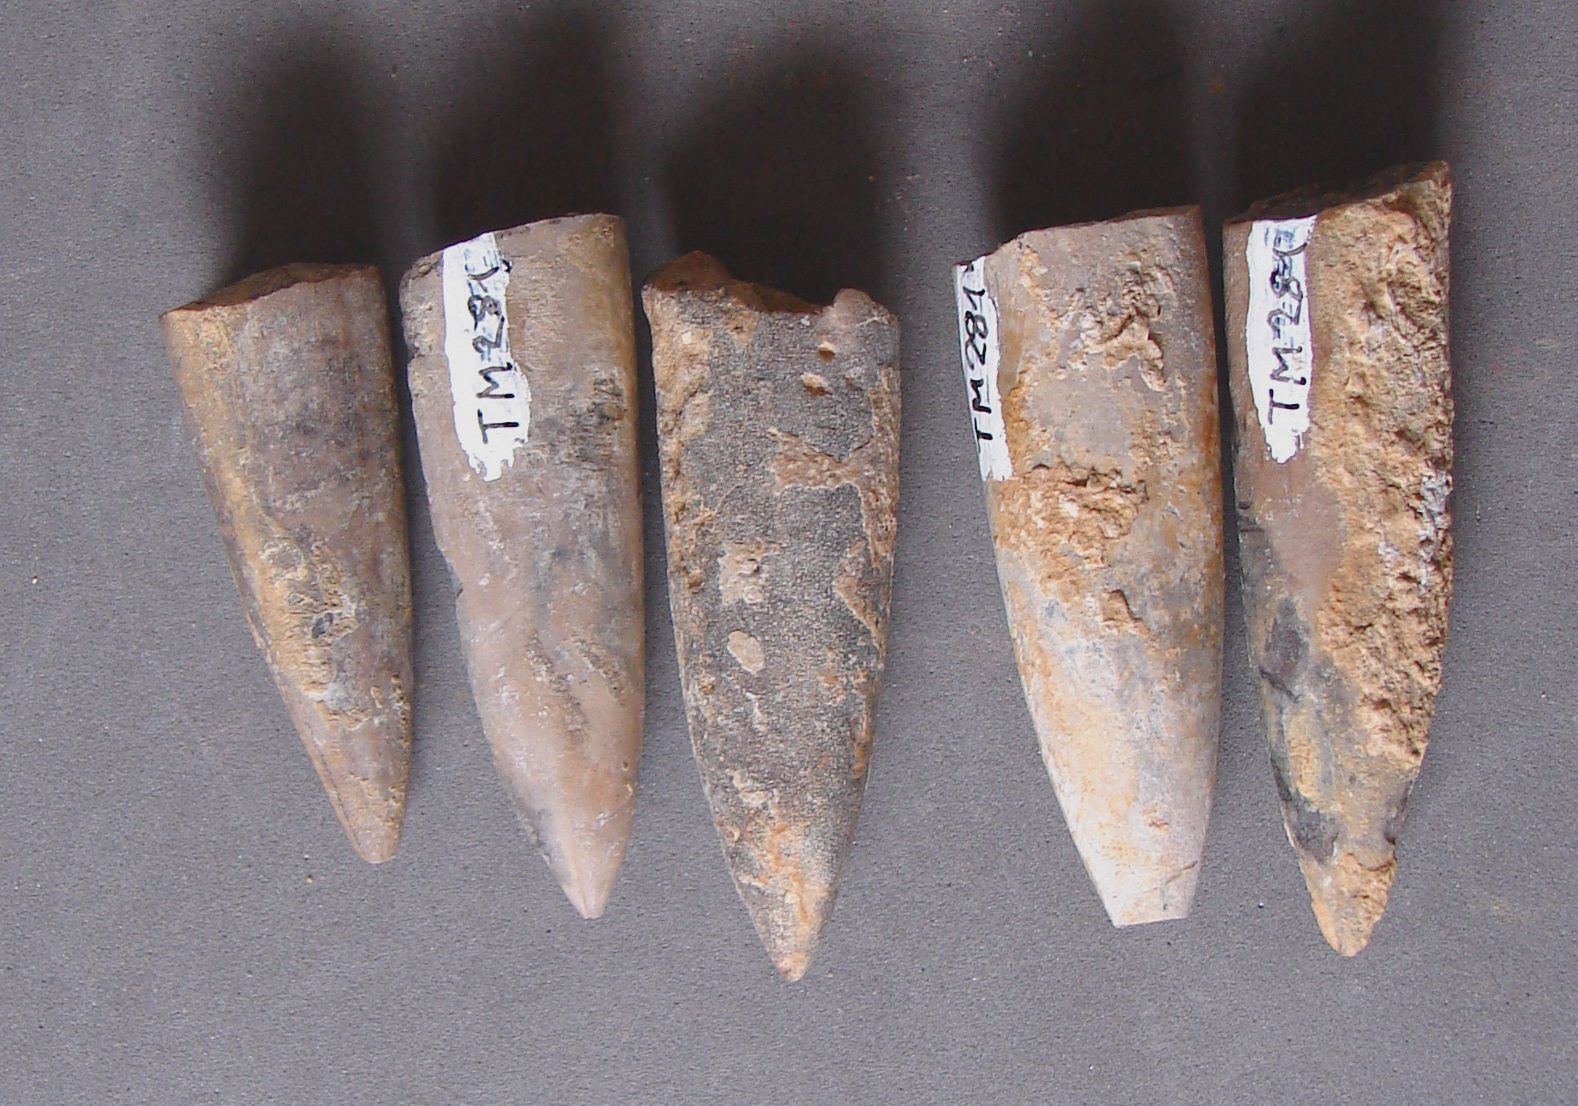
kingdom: Animalia
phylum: Mollusca
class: Cephalopoda
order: Belemnitida
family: Megateuthididae
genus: Dactyloteuthis
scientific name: Dactyloteuthis wrighti
